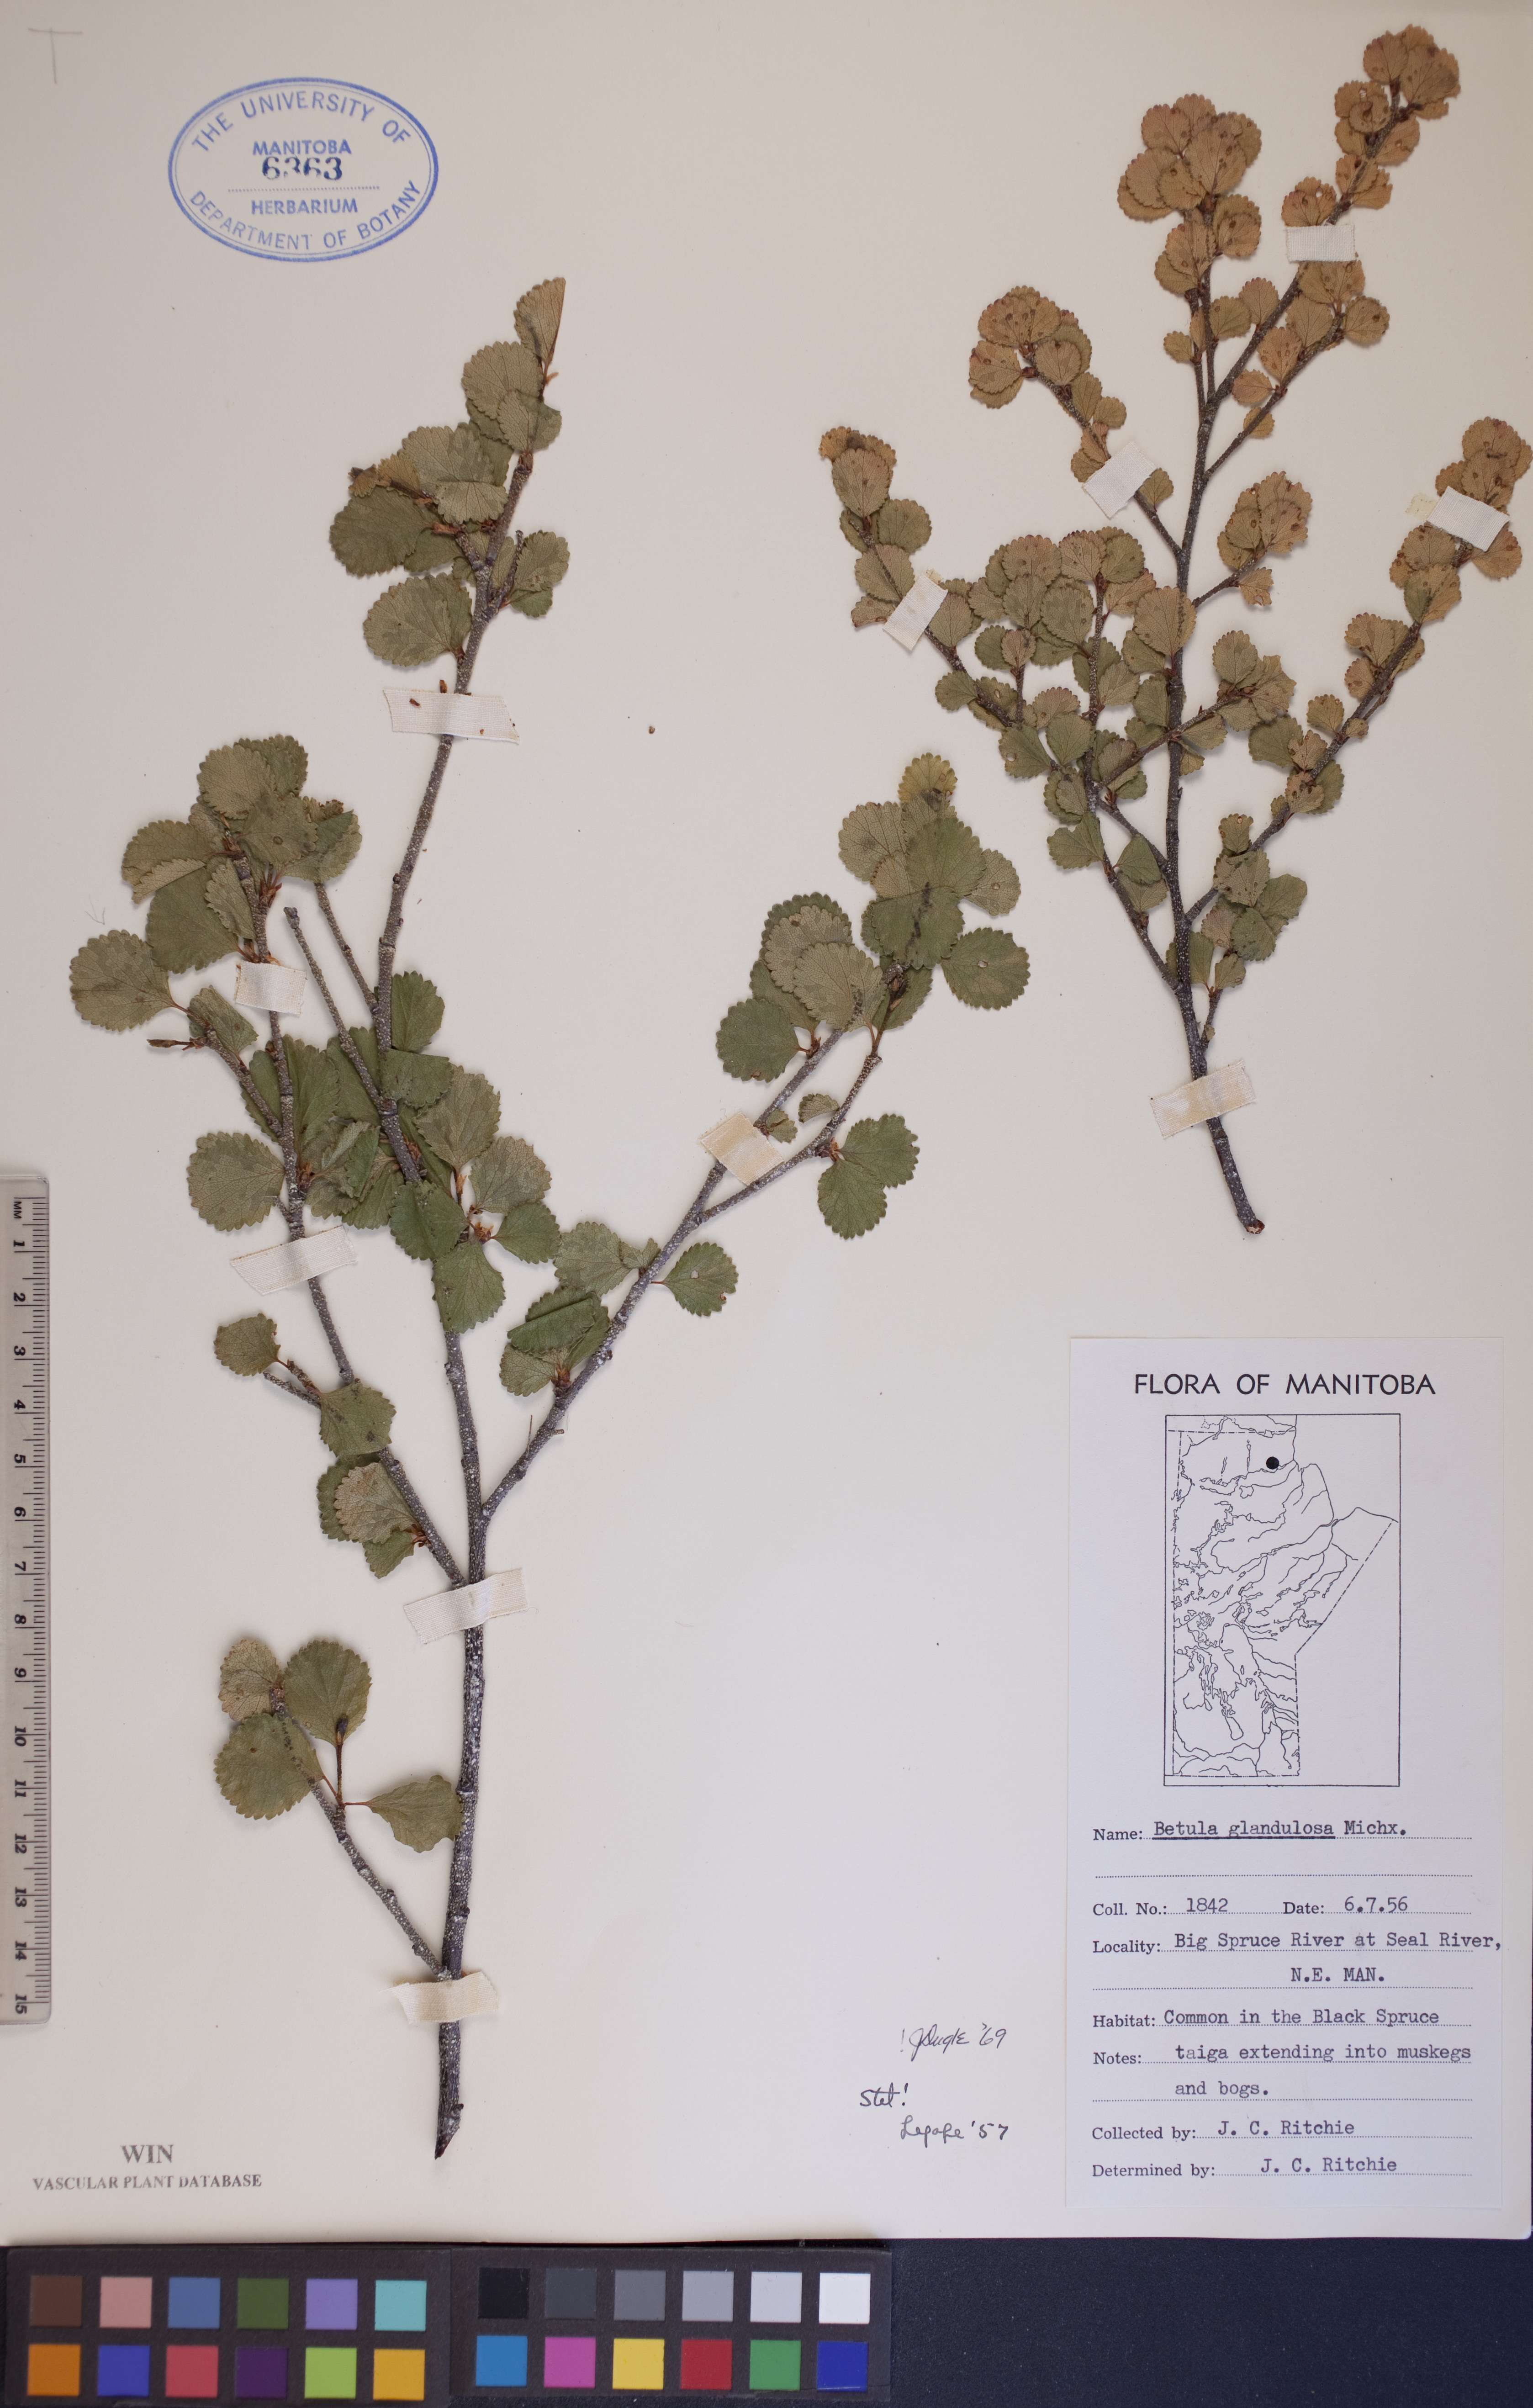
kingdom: Plantae
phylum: Tracheophyta
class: Magnoliopsida
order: Fagales
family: Betulaceae
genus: Betula
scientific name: Betula glandulosa
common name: Dwarf birch
